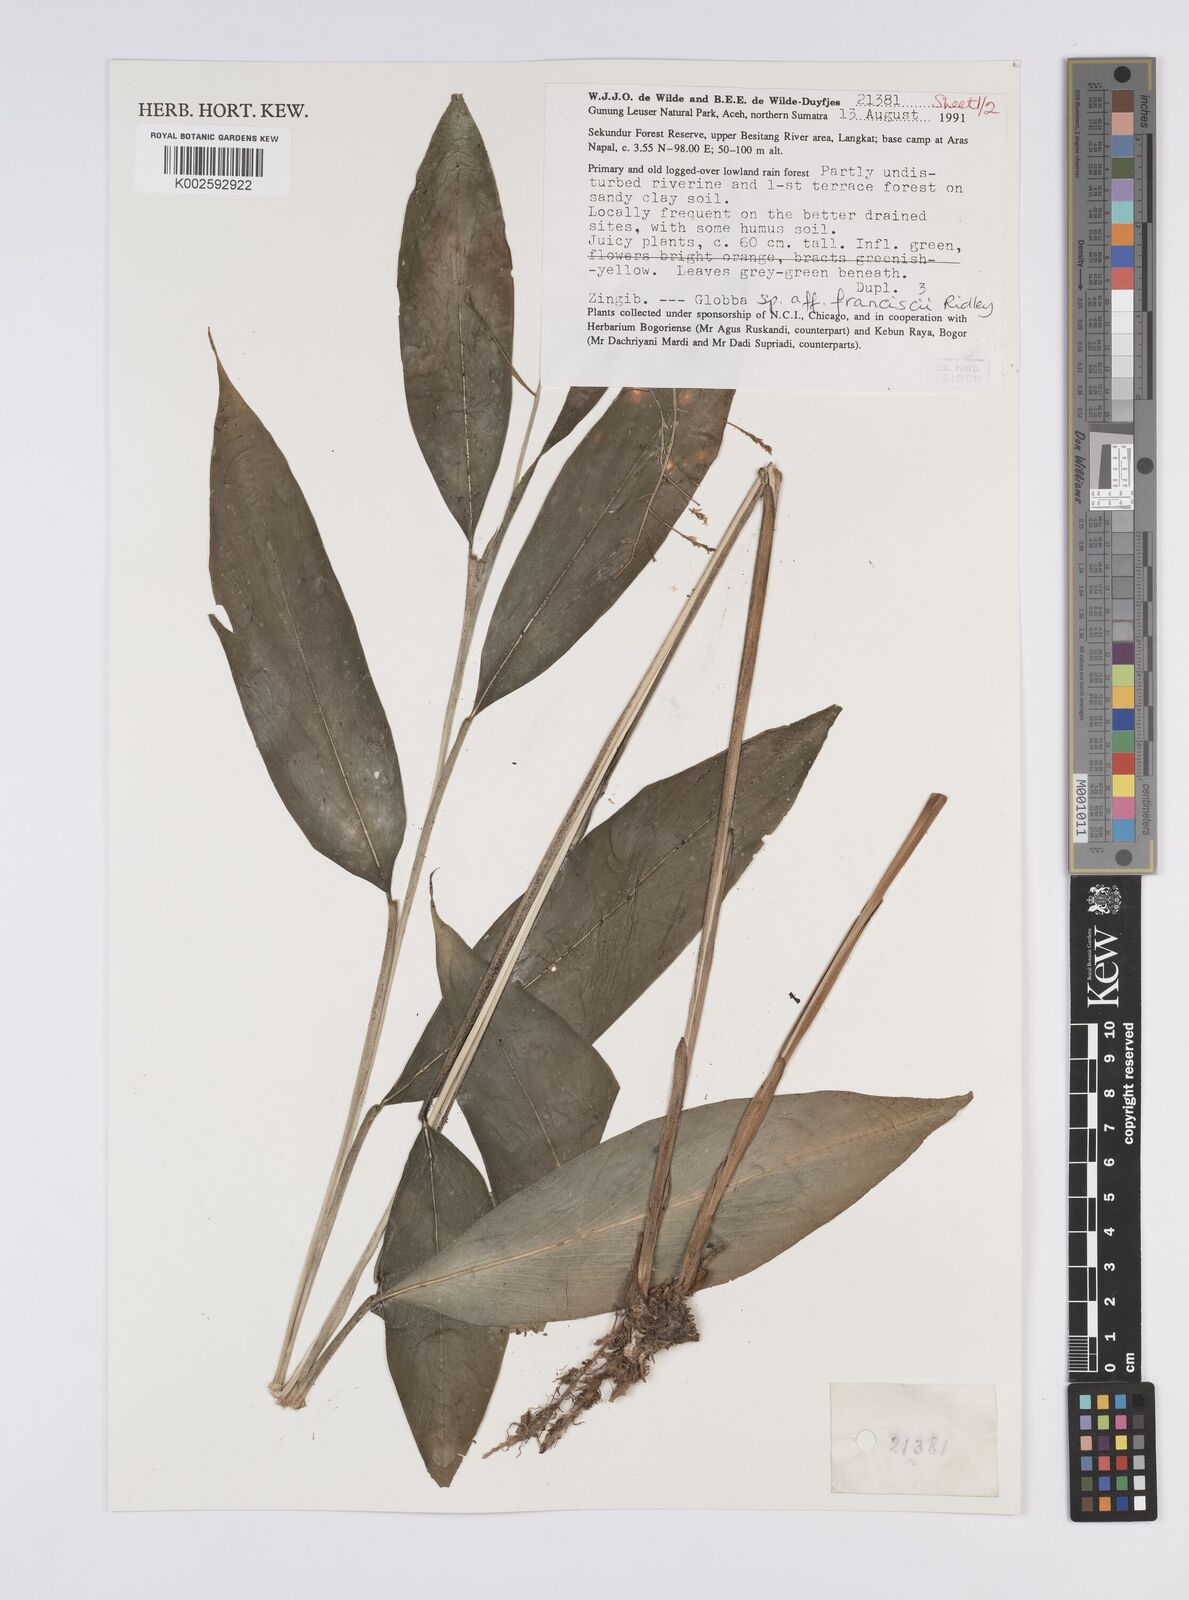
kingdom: Plantae
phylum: Tracheophyta
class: Liliopsida
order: Zingiberales
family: Zingiberaceae
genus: Globba
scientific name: Globba francisci
